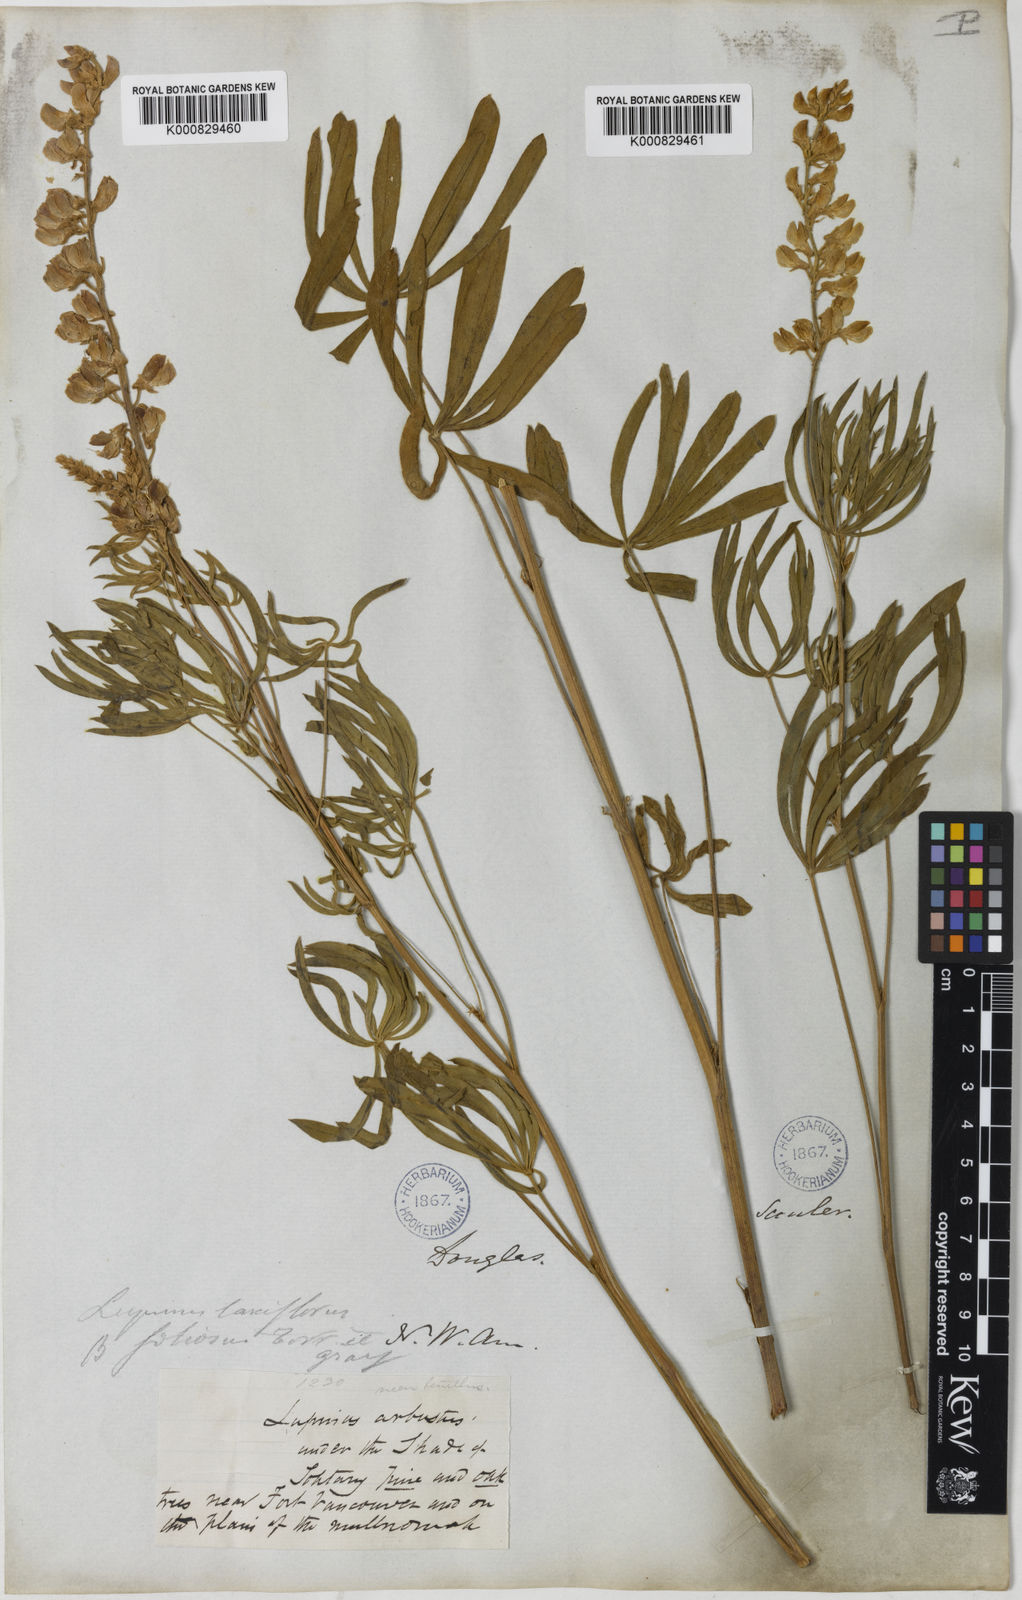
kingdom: Plantae
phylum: Tracheophyta
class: Magnoliopsida
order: Fabales
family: Fabaceae
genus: Lupinus
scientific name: Lupinus arbustus
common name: Montana lupine
